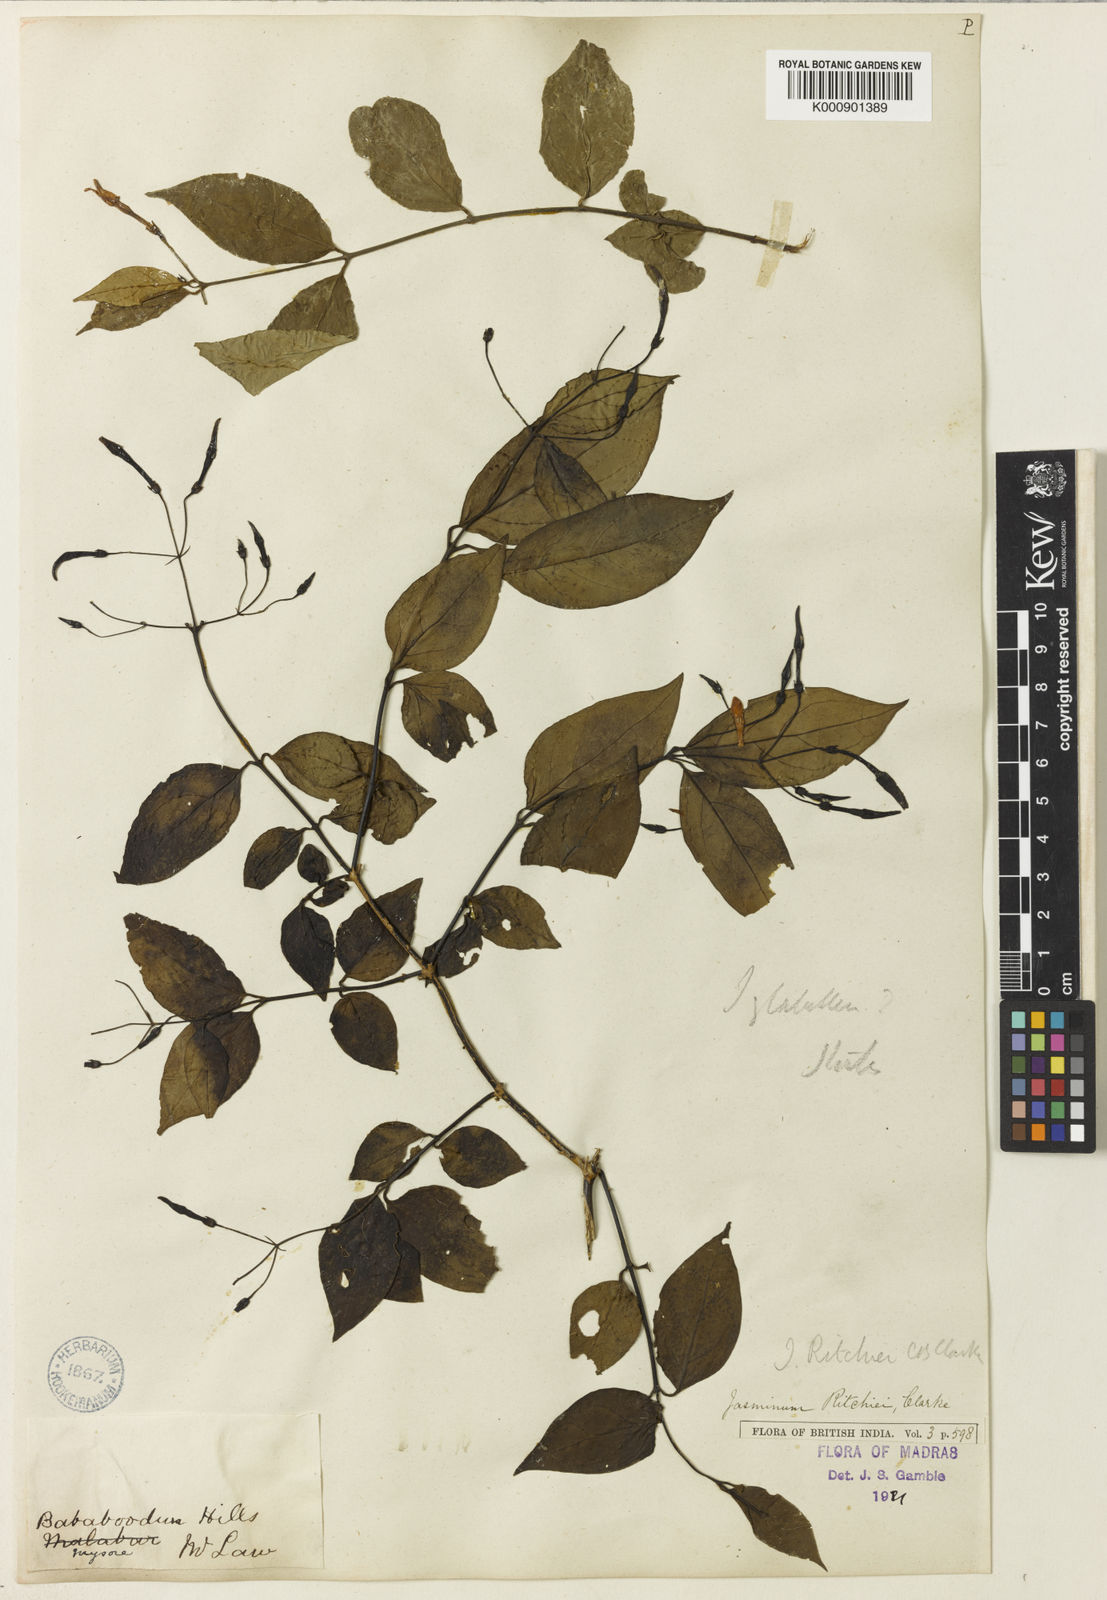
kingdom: Plantae
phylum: Tracheophyta
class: Magnoliopsida
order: Lamiales
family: Oleaceae
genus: Jasminum
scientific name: Jasminum ritchiei
